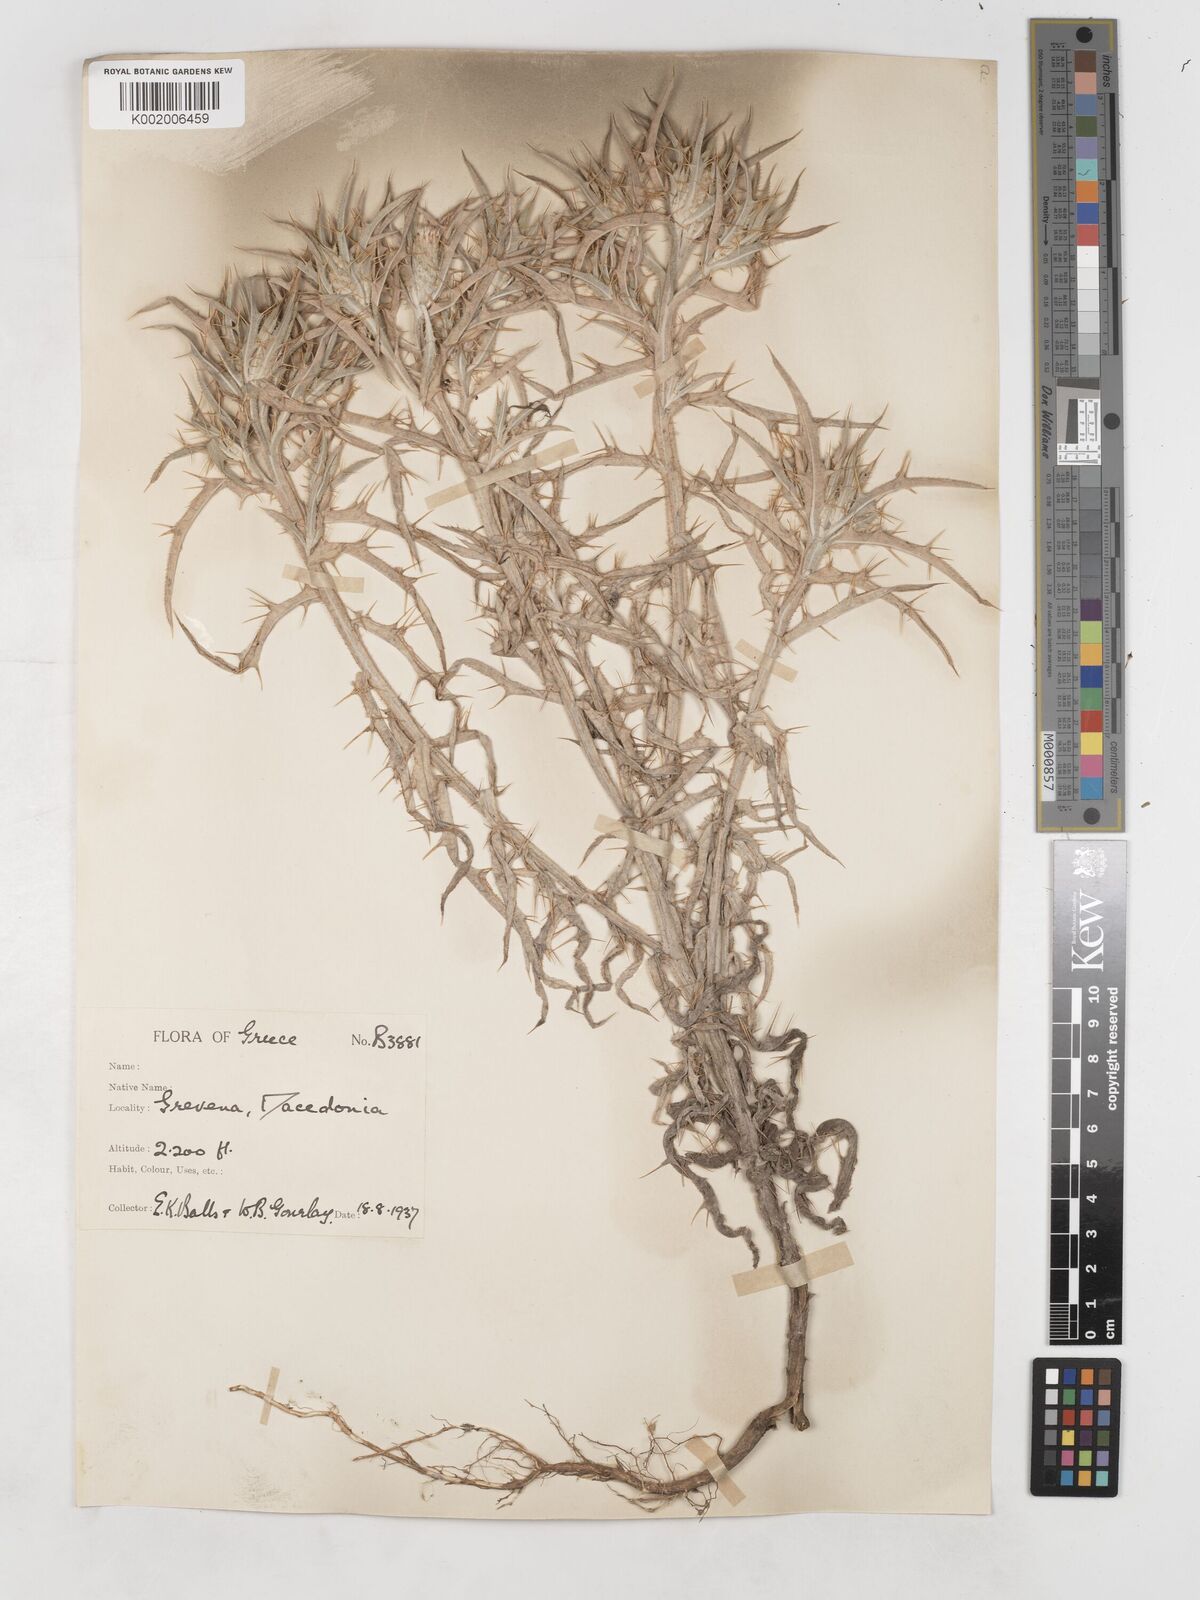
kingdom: Plantae
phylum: Tracheophyta
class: Magnoliopsida
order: Asterales
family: Asteraceae
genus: Picnomon
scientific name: Picnomon acarna
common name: Soldier thistle
